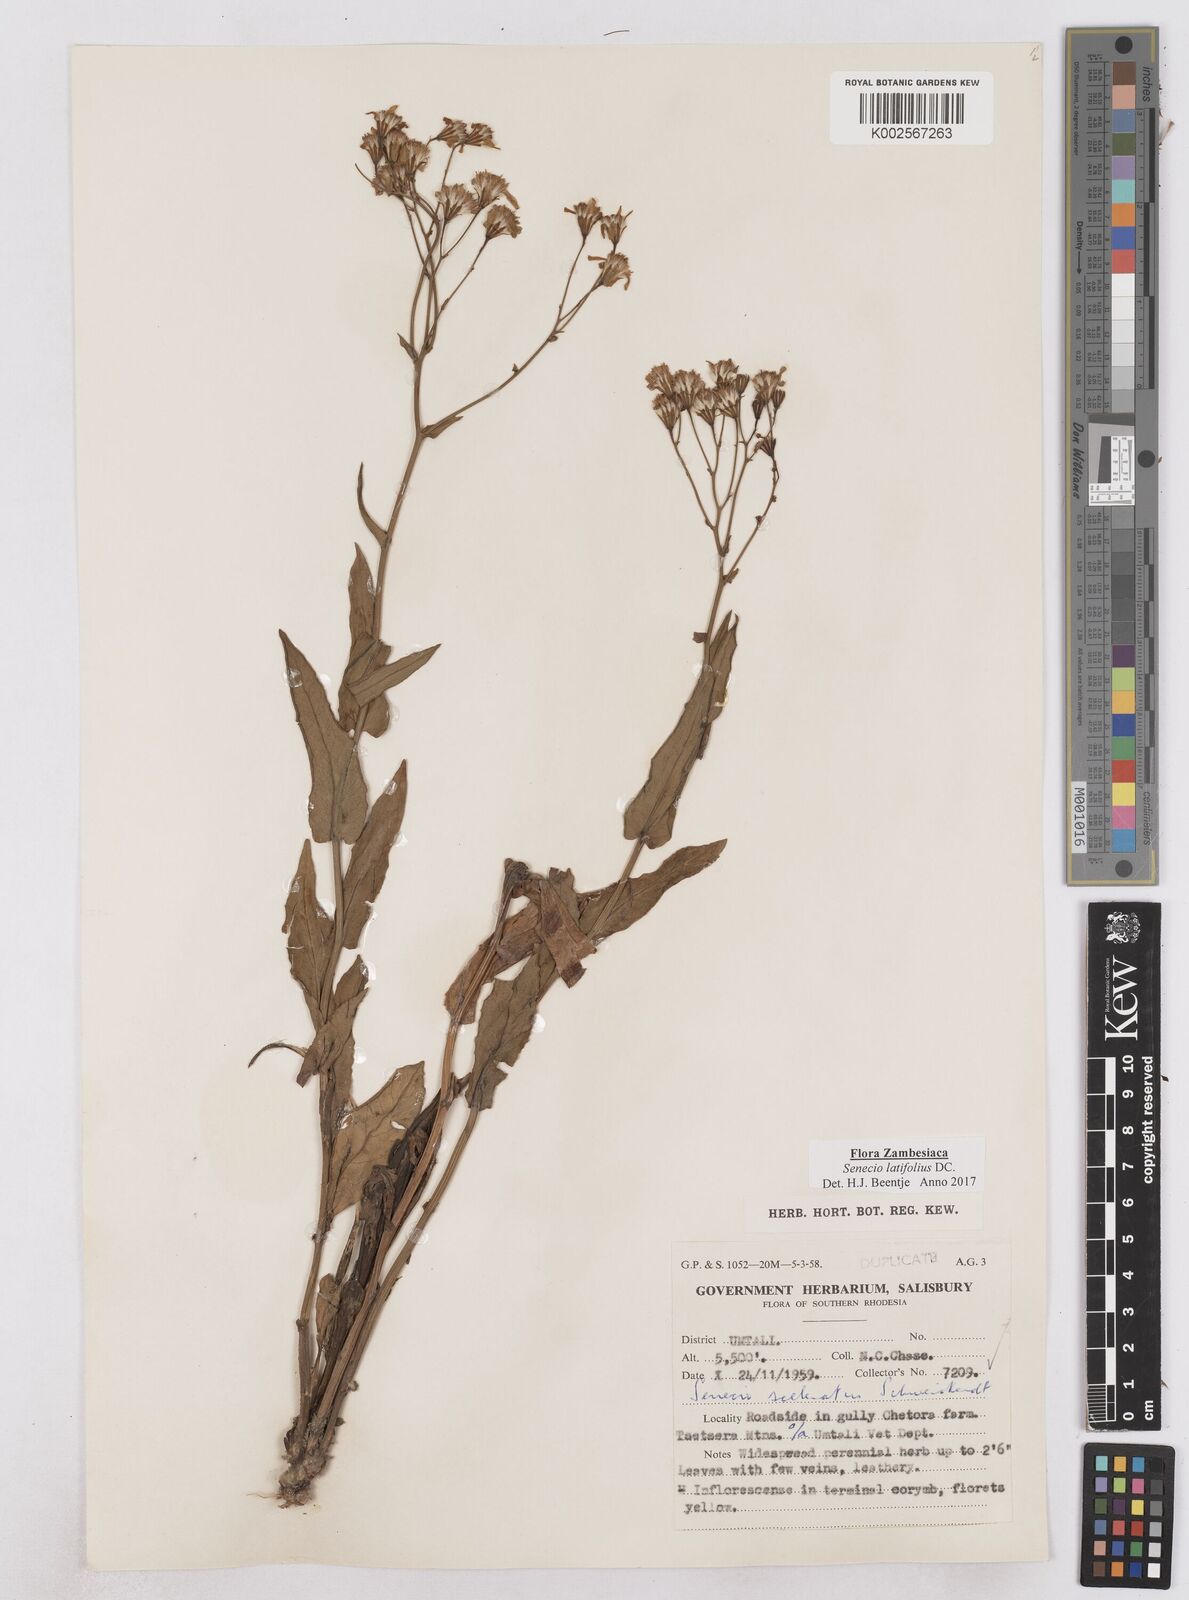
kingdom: Plantae
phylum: Tracheophyta
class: Magnoliopsida
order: Asterales
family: Asteraceae
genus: Senecio
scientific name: Senecio latifolius
